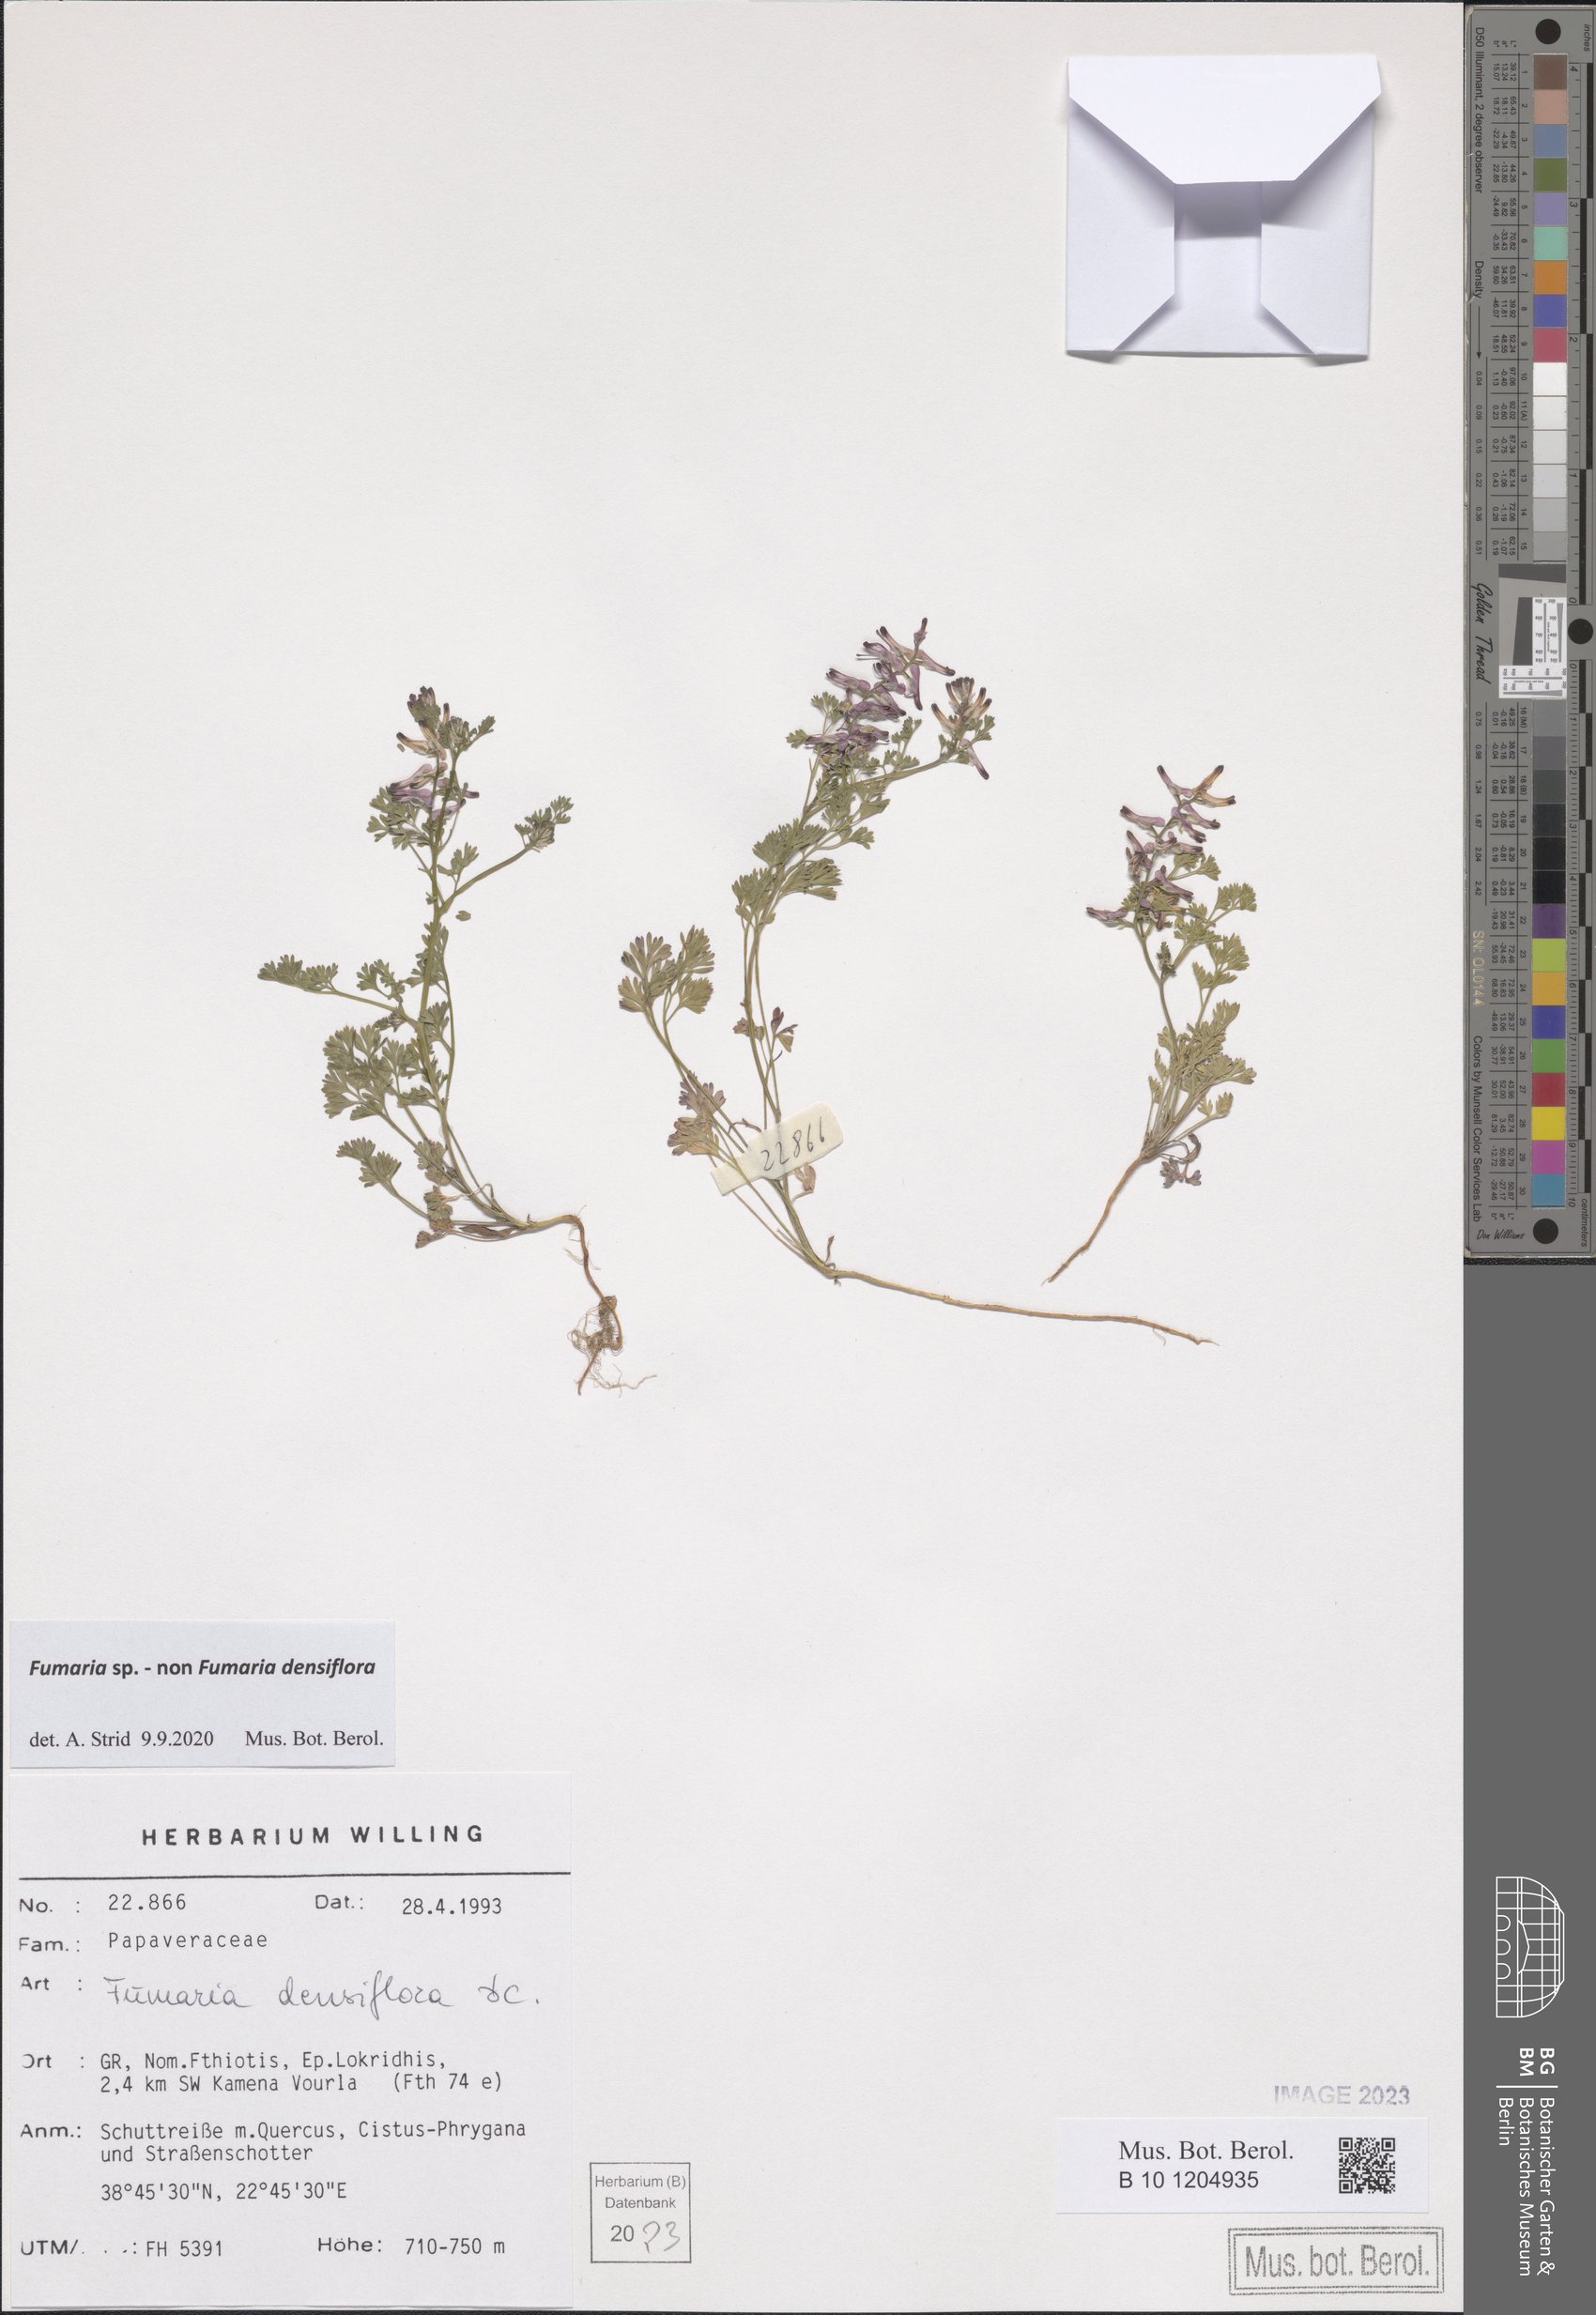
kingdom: Plantae
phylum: Tracheophyta
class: Magnoliopsida
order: Ranunculales
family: Papaveraceae
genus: Fumaria
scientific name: Fumaria
